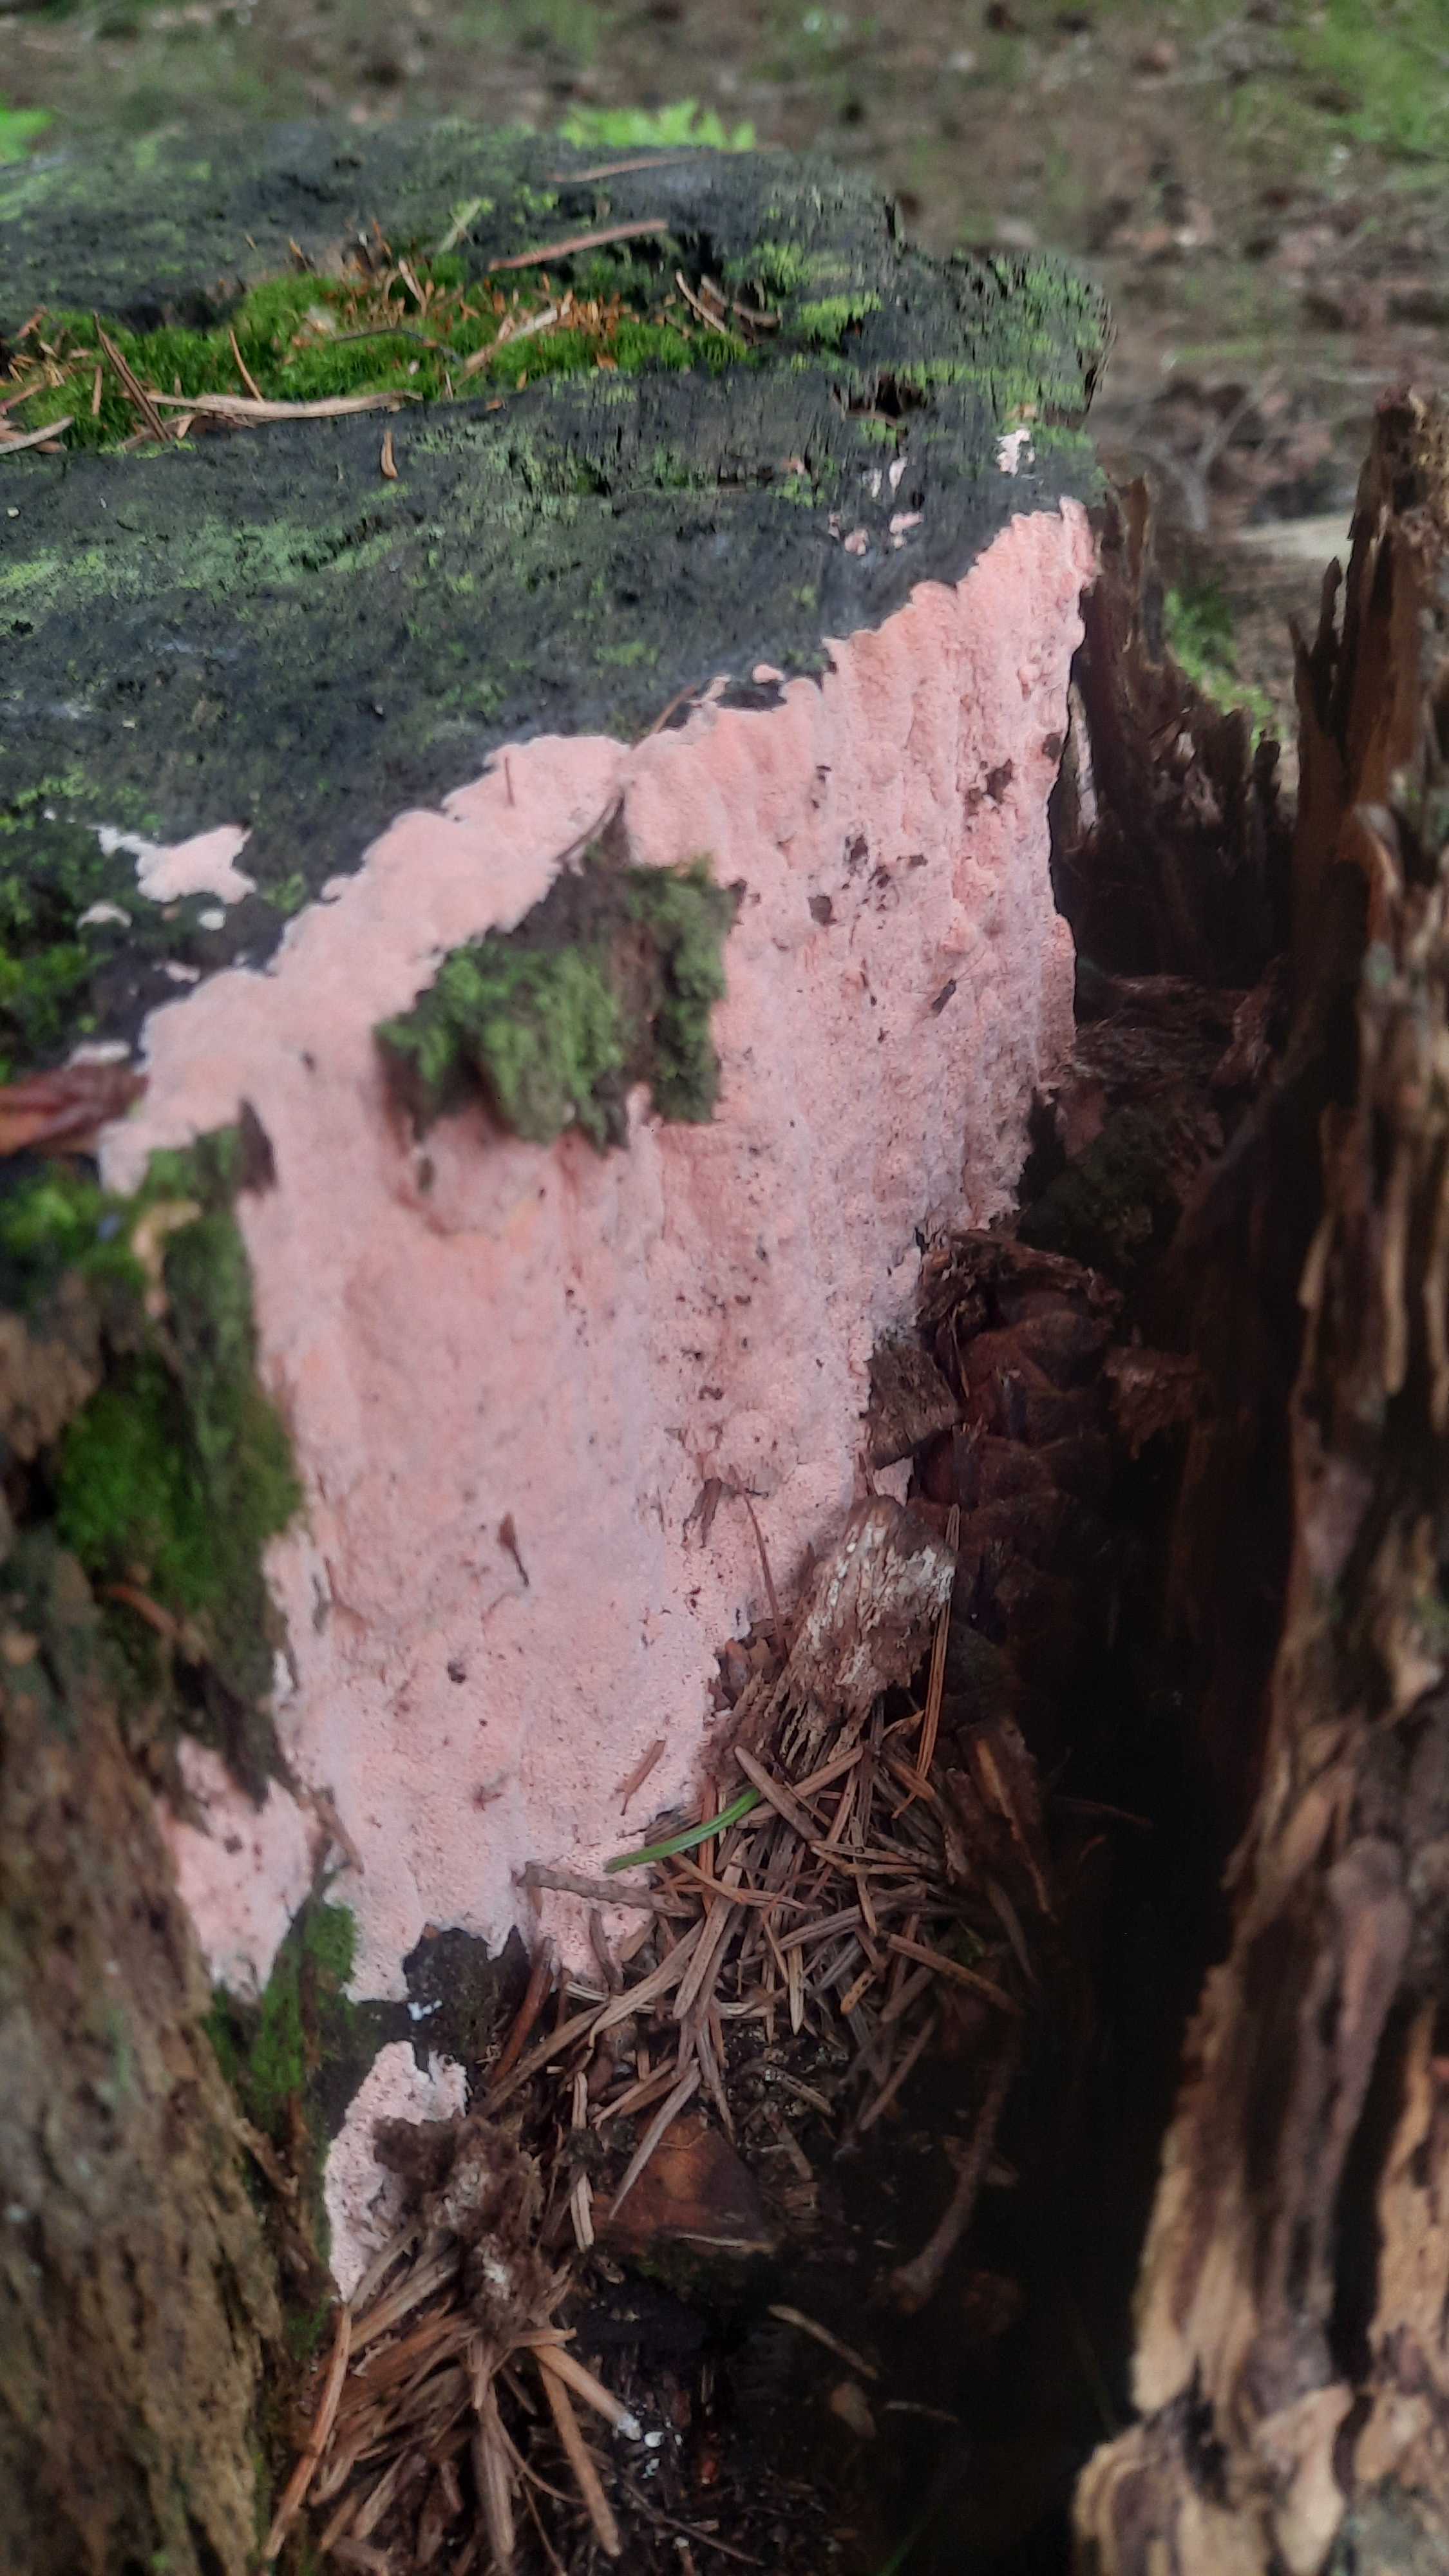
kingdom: Fungi
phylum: Basidiomycota
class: Agaricomycetes
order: Polyporales
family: Polyporaceae
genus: Rhodonia
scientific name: Rhodonia placenta
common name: rosaporesvamp
